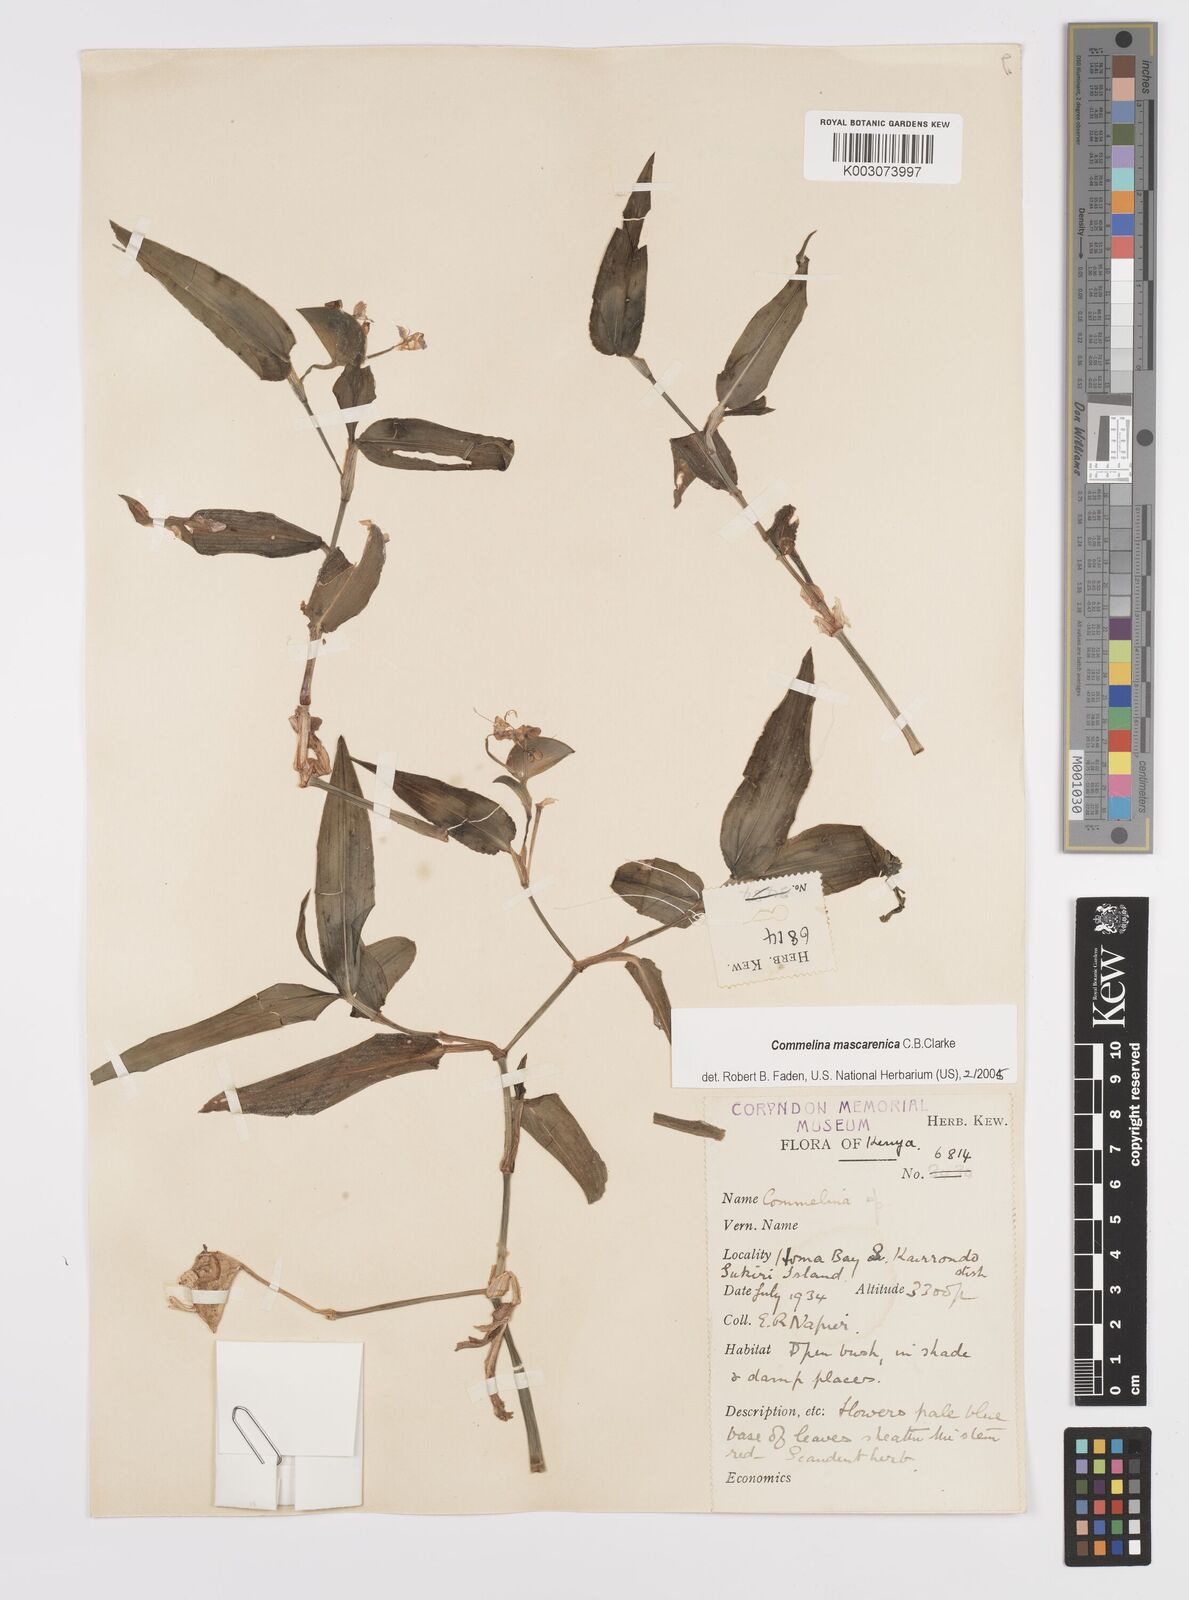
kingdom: Plantae
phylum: Tracheophyta
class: Liliopsida
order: Commelinales
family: Commelinaceae
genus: Commelina
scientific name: Commelina mascarenica
